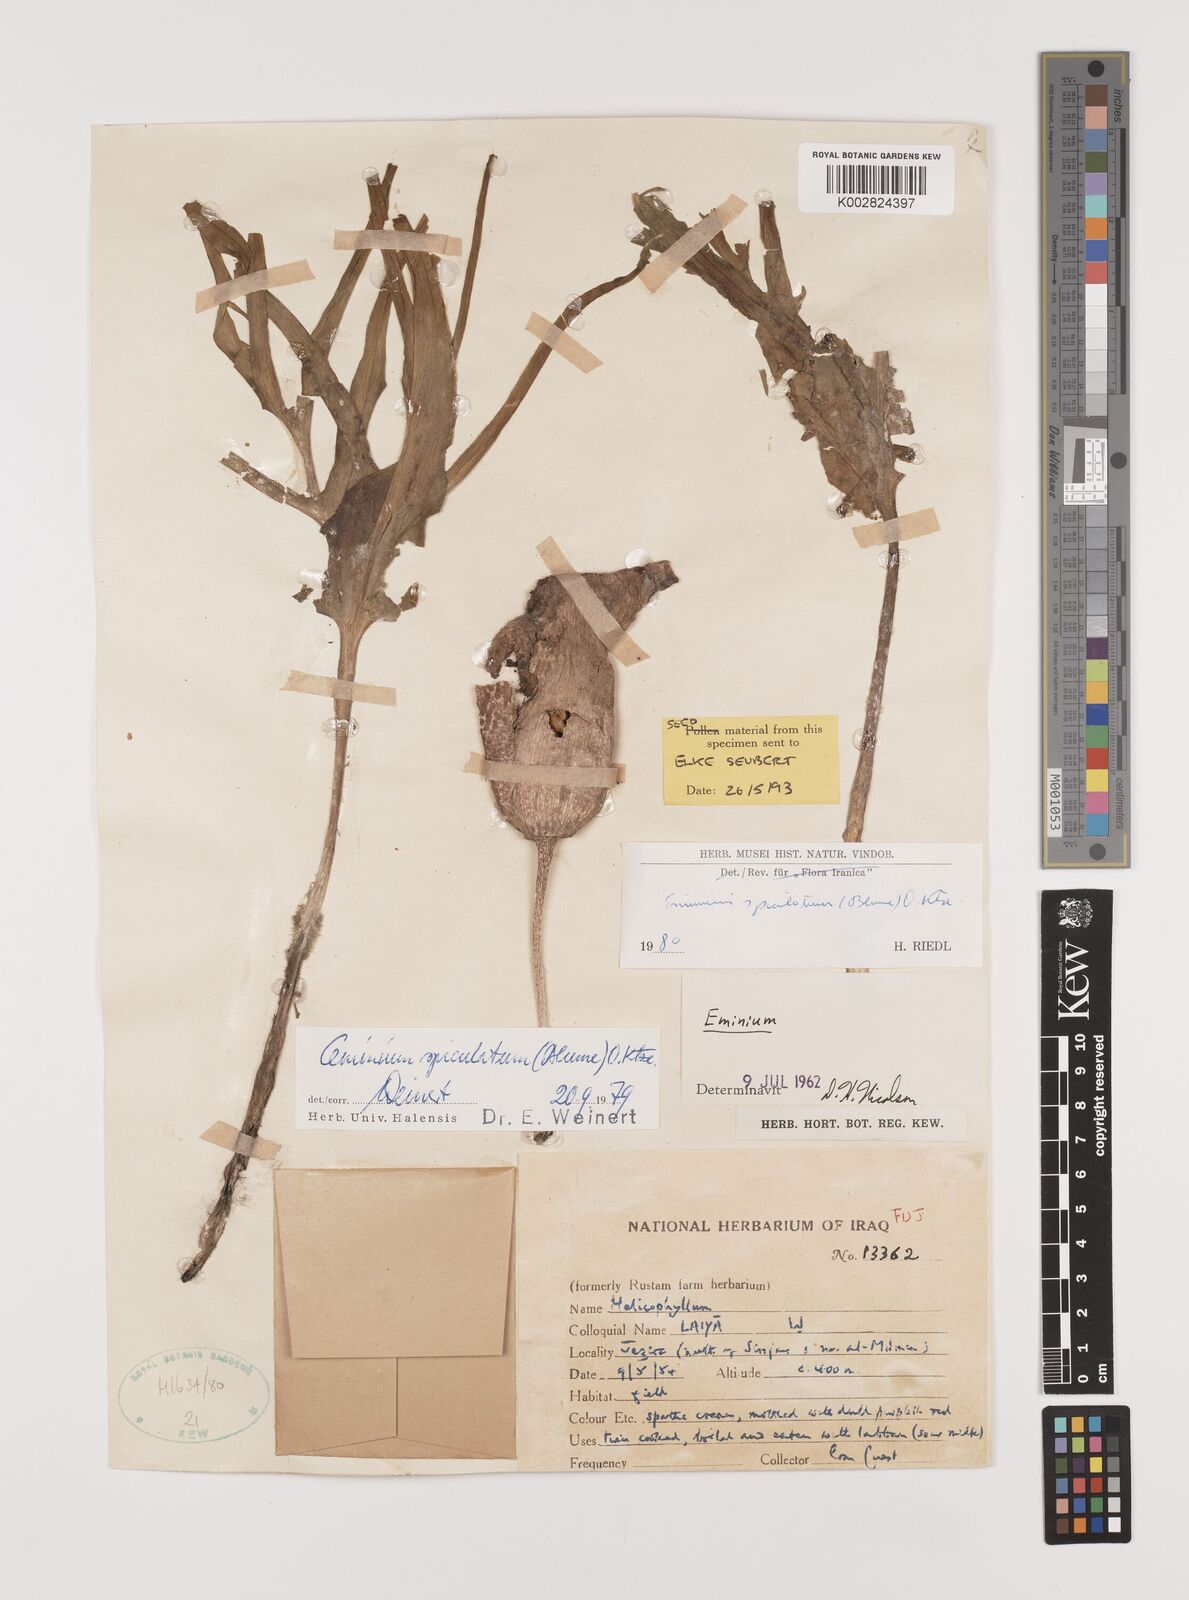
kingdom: Plantae
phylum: Tracheophyta
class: Liliopsida
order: Alismatales
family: Araceae
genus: Eminium
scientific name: Eminium spiculatum
